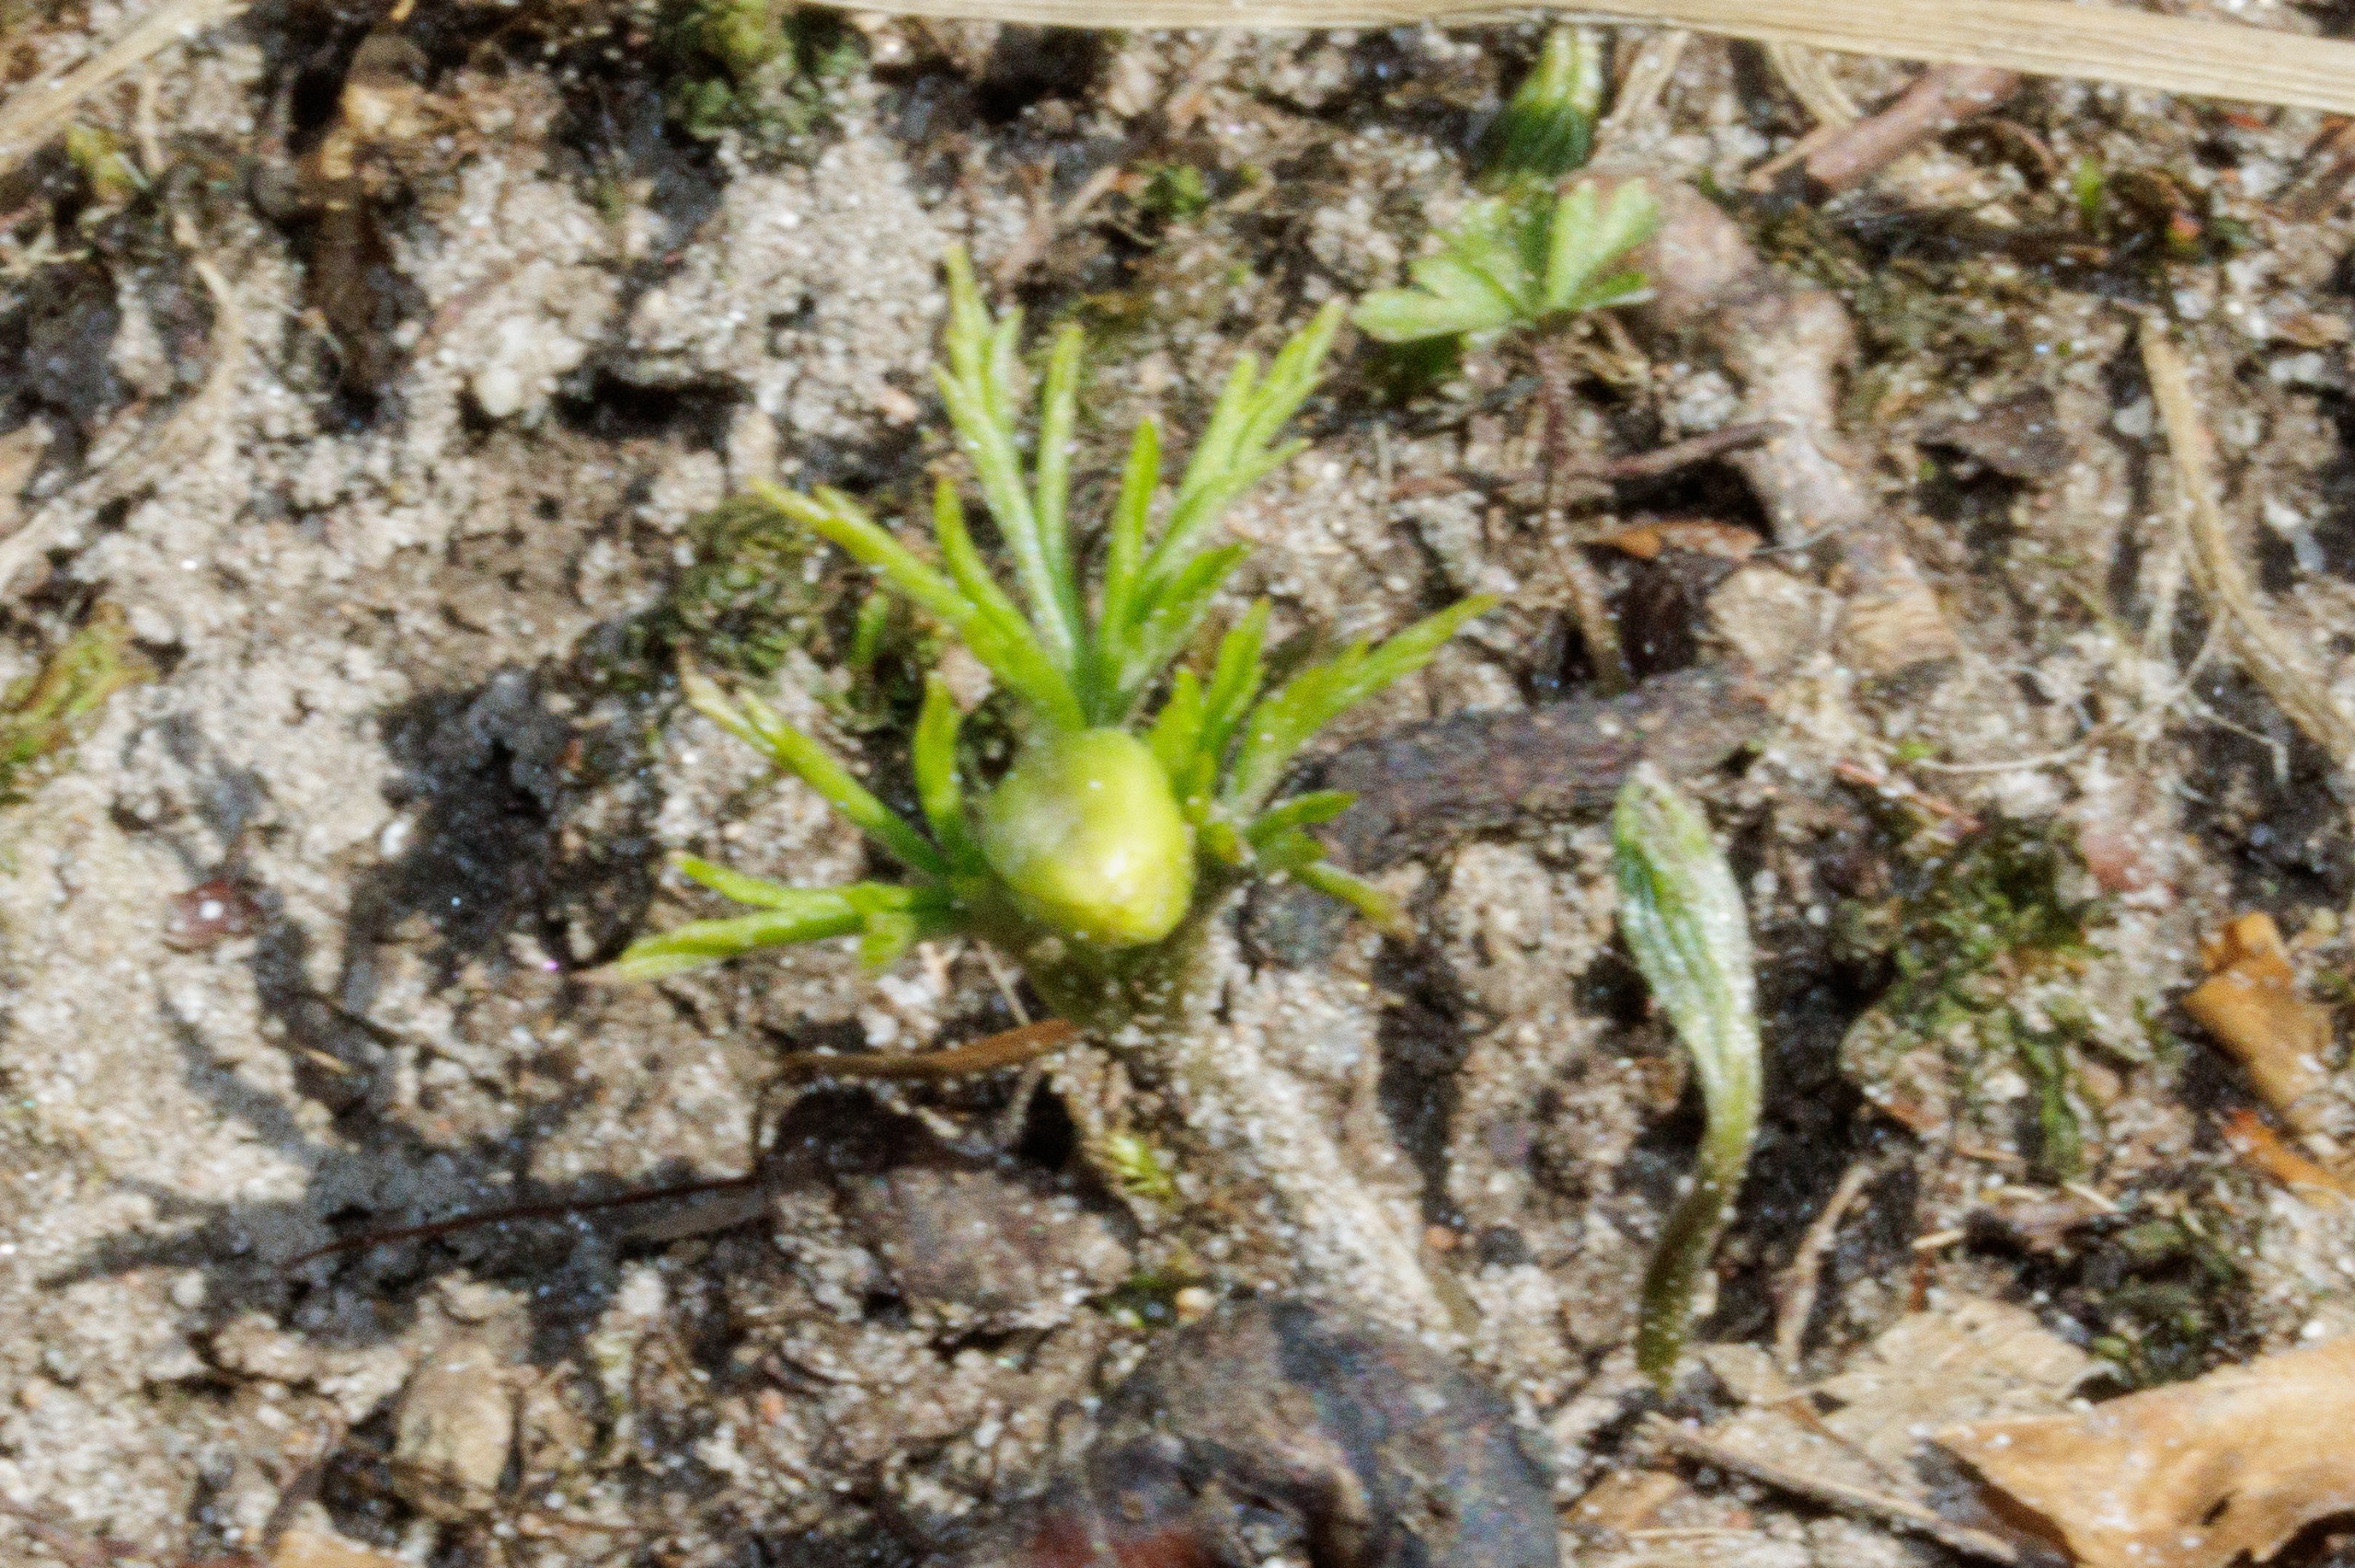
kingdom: Plantae
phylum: Tracheophyta
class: Magnoliopsida
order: Ranunculales
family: Ranunculaceae
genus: Anemone
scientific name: Anemone nemorosa
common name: Hvid anemone
